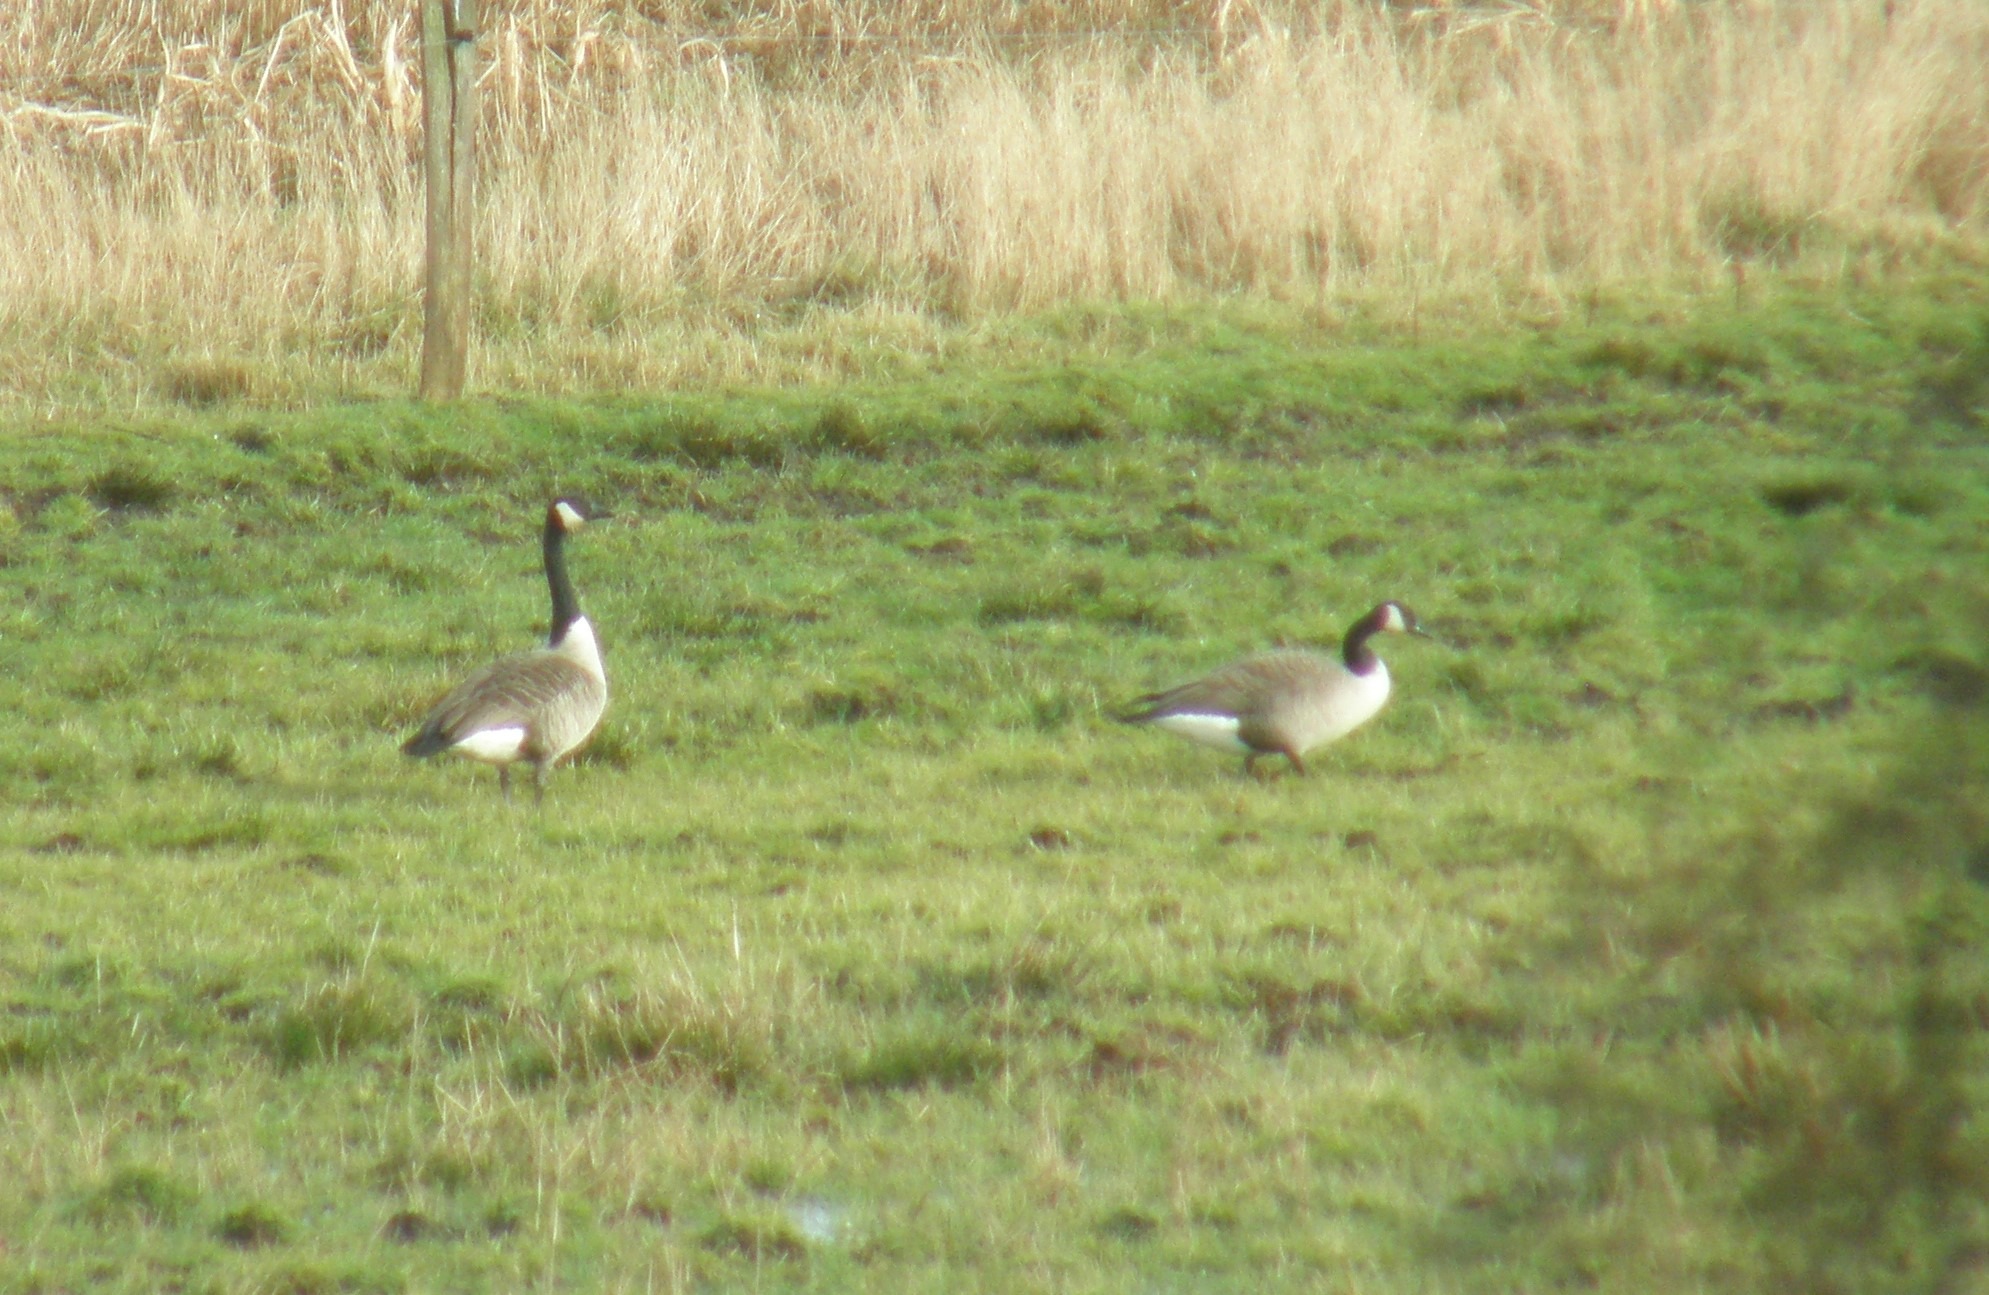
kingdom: Animalia
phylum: Chordata
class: Aves
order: Anseriformes
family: Anatidae
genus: Branta
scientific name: Branta canadensis
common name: Canadagås
